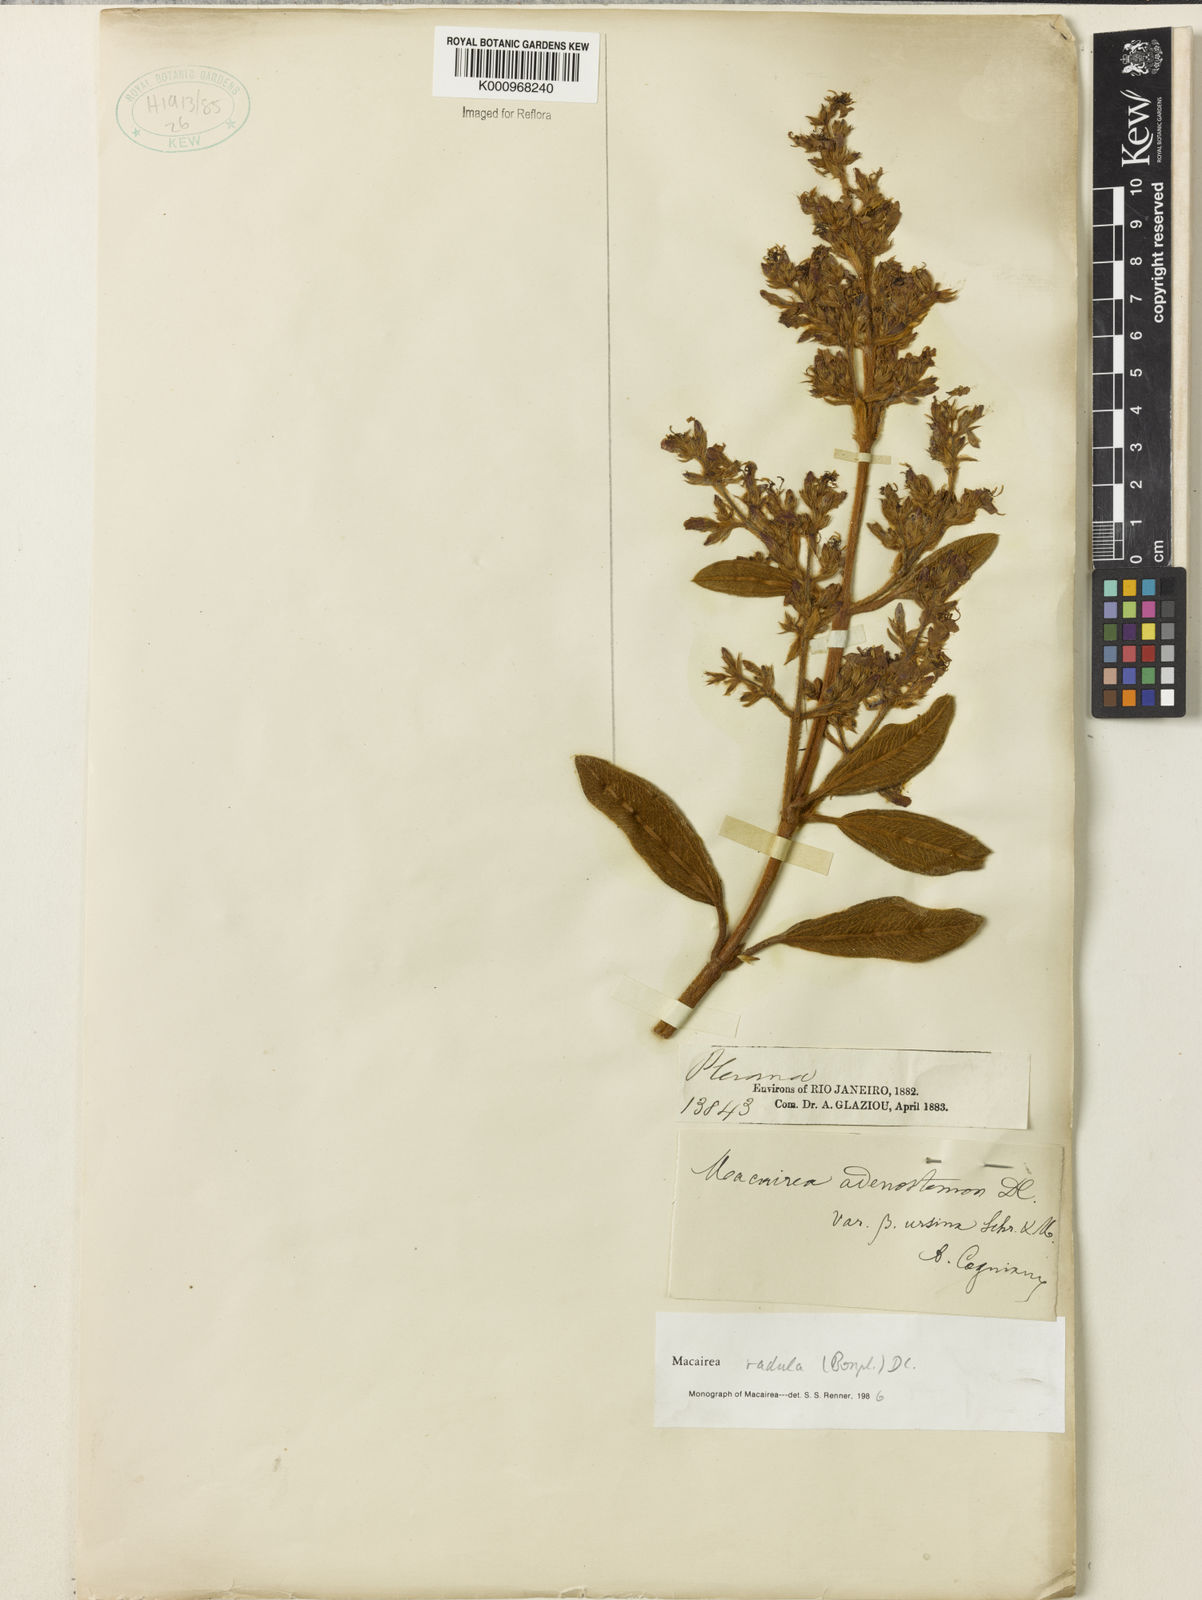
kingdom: Plantae
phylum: Tracheophyta
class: Magnoliopsida
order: Myrtales
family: Melastomataceae
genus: Macairea
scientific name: Macairea radula
